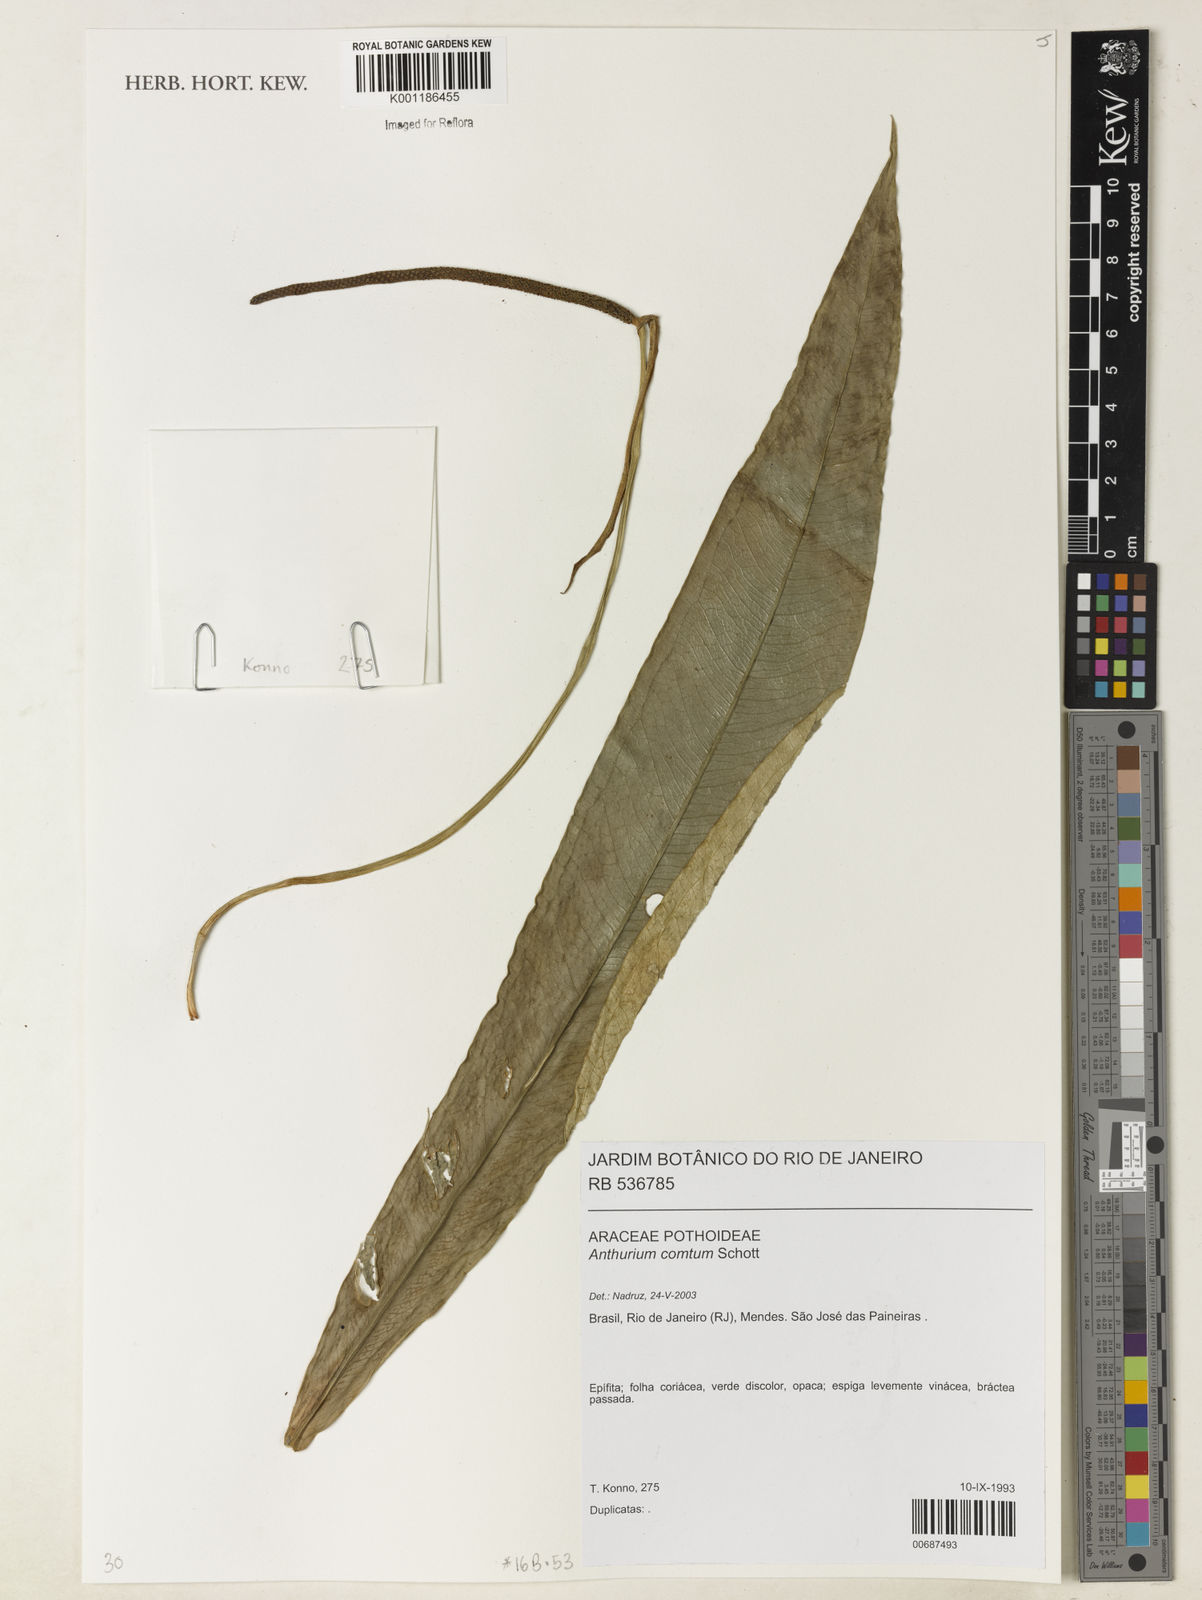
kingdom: Plantae
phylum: Tracheophyta
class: Liliopsida
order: Alismatales
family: Araceae
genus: Anthurium
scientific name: Anthurium comtum
